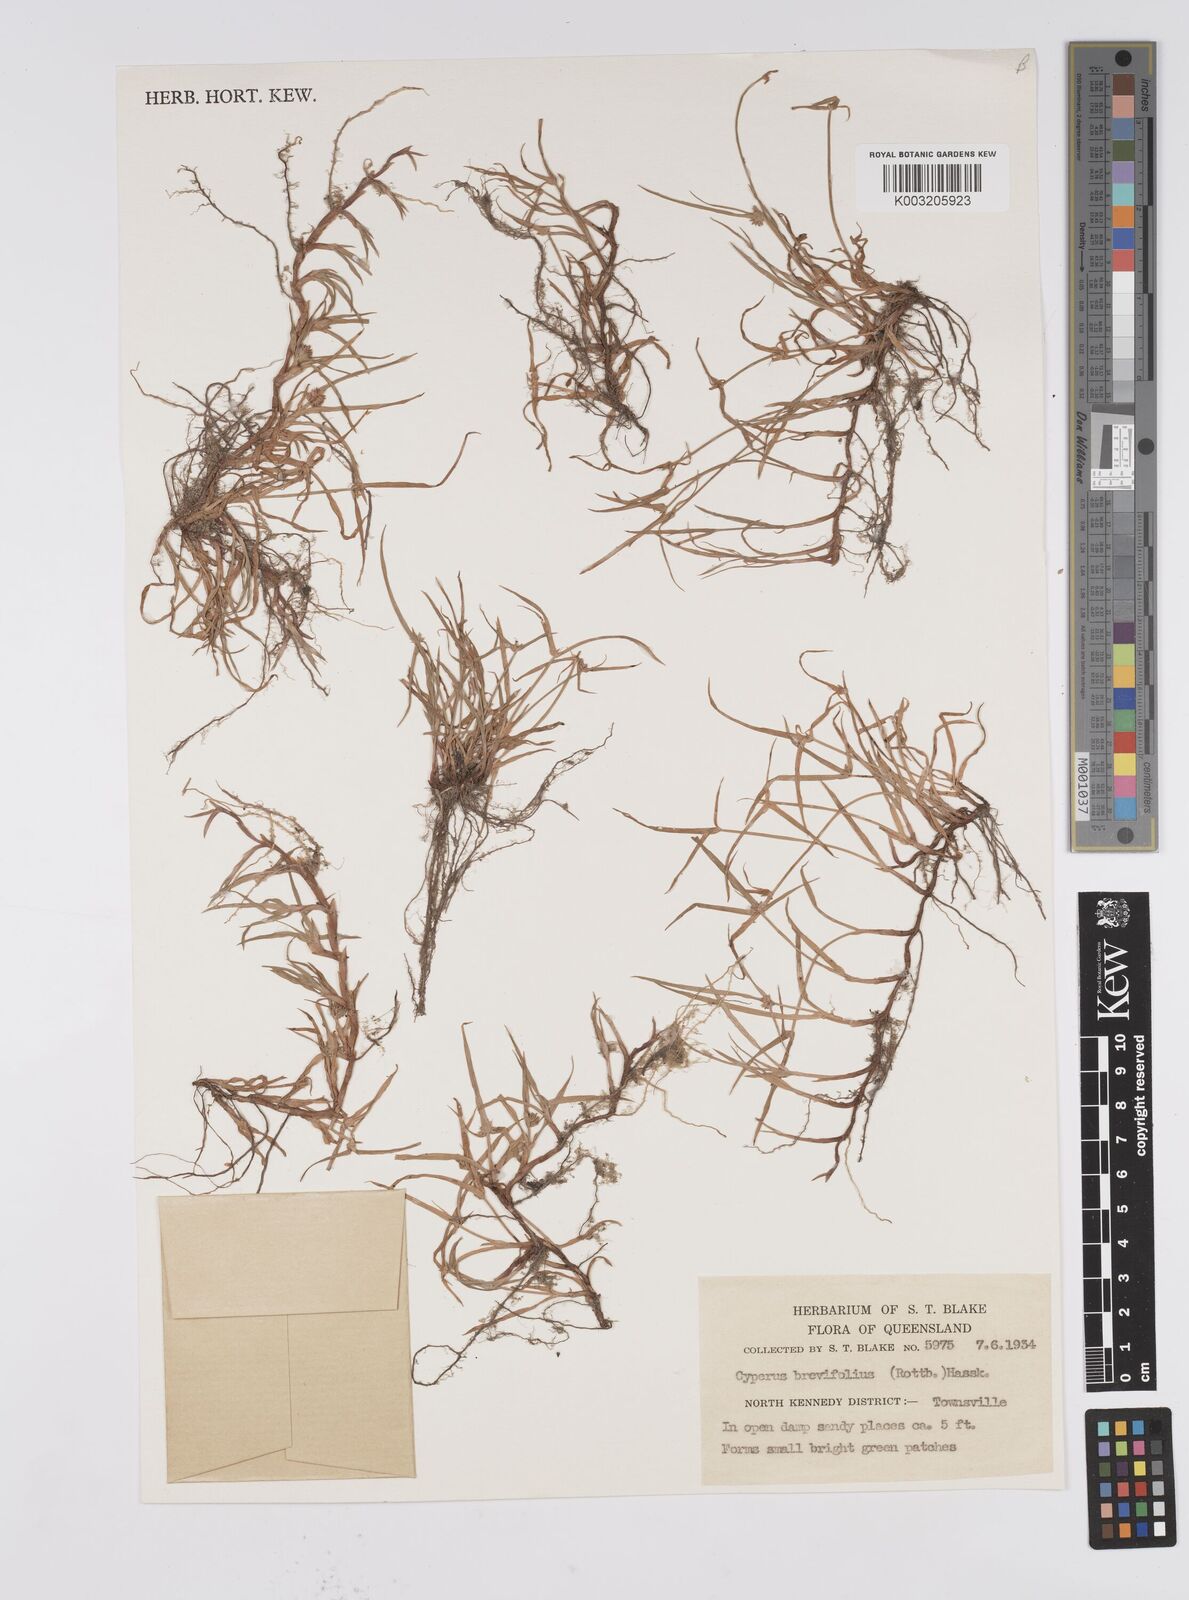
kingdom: Plantae
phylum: Tracheophyta
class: Liliopsida
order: Poales
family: Cyperaceae
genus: Cyperus
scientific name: Cyperus brevifolius
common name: Globe kyllinga
